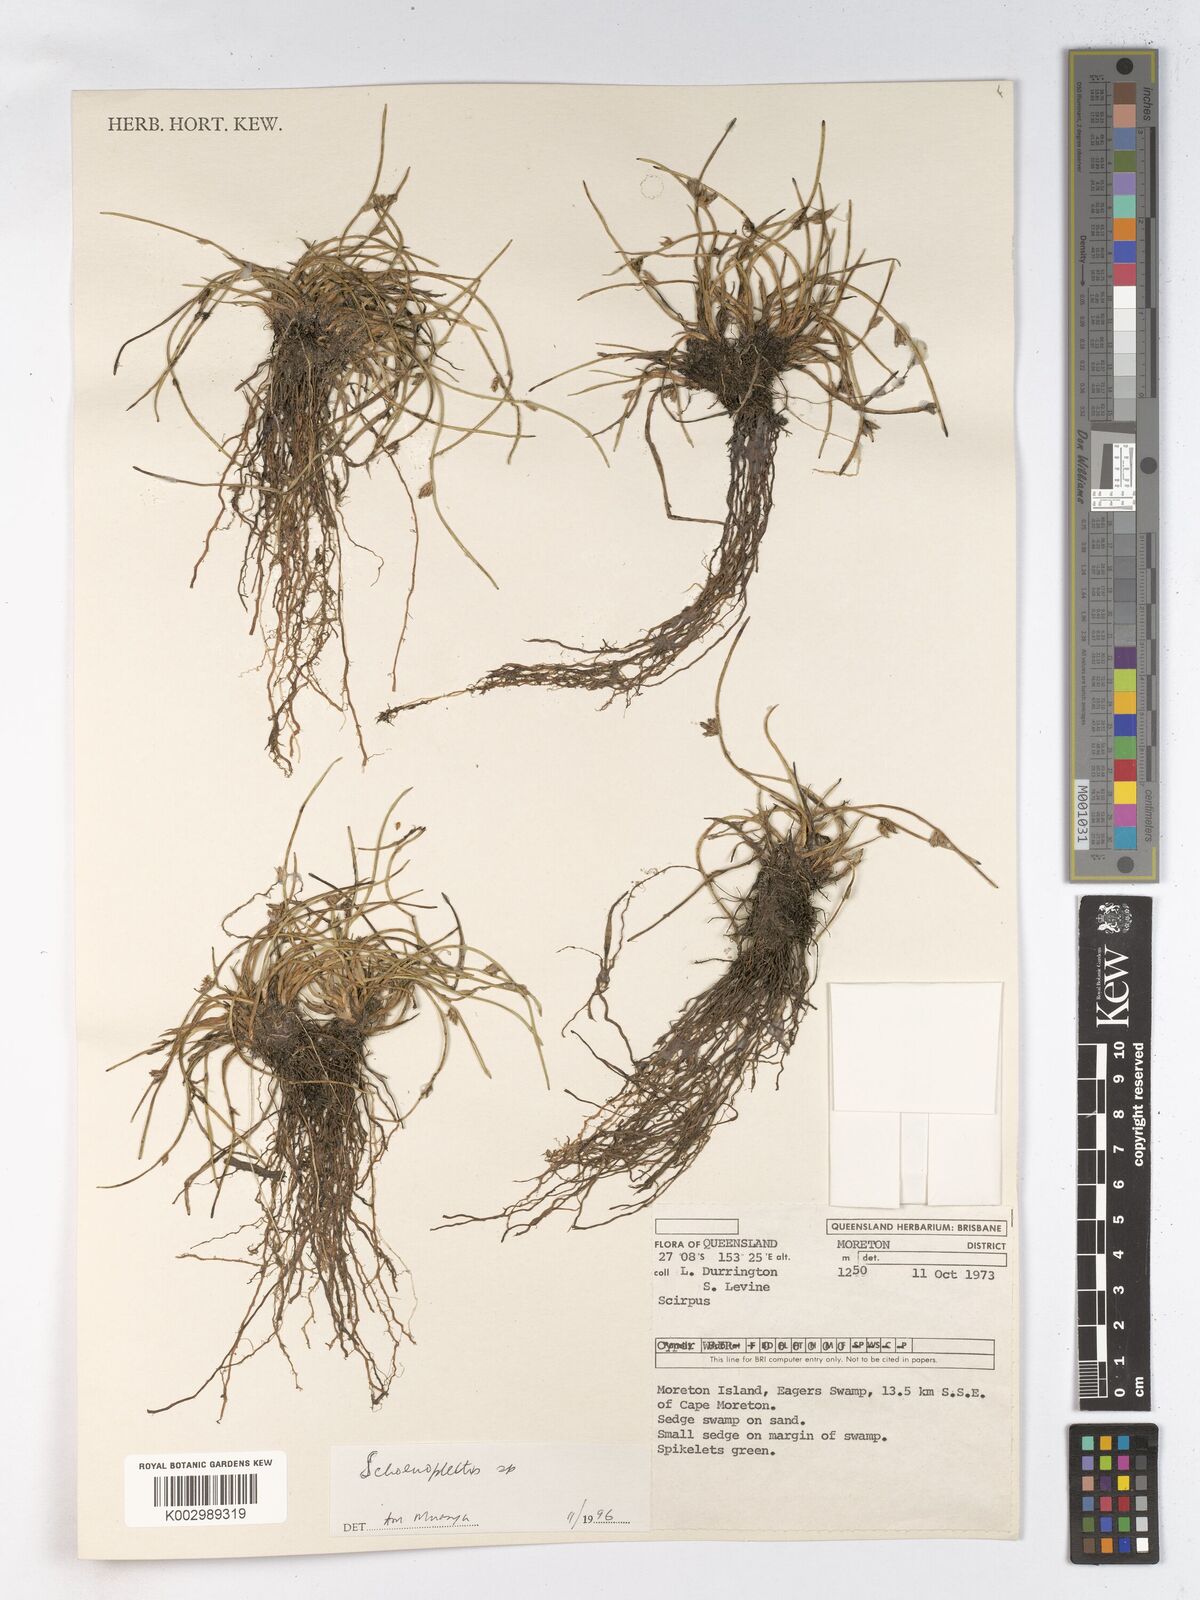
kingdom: Plantae
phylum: Tracheophyta
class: Liliopsida
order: Poales
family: Cyperaceae
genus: Schoenoplectus
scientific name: Schoenoplectus
